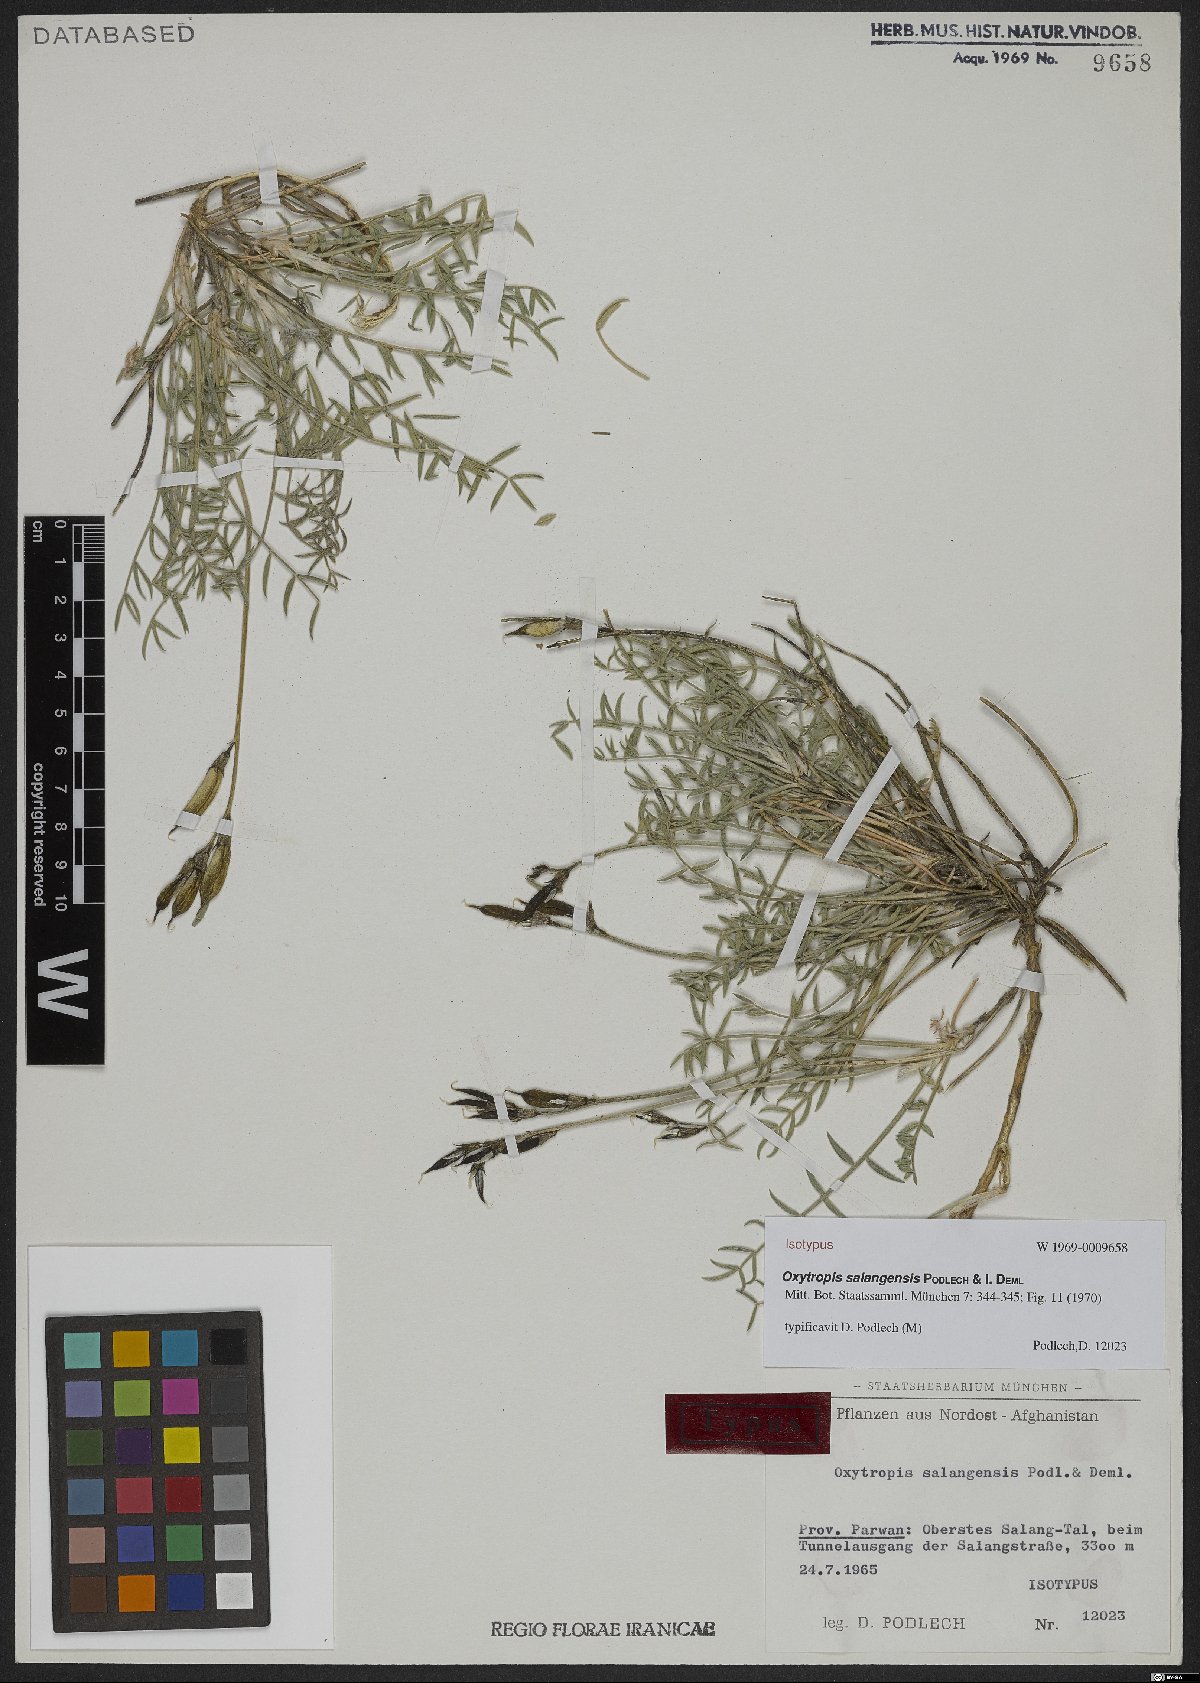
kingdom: Plantae
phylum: Tracheophyta
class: Magnoliopsida
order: Fabales
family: Fabaceae
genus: Oxytropis
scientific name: Oxytropis salangensis
